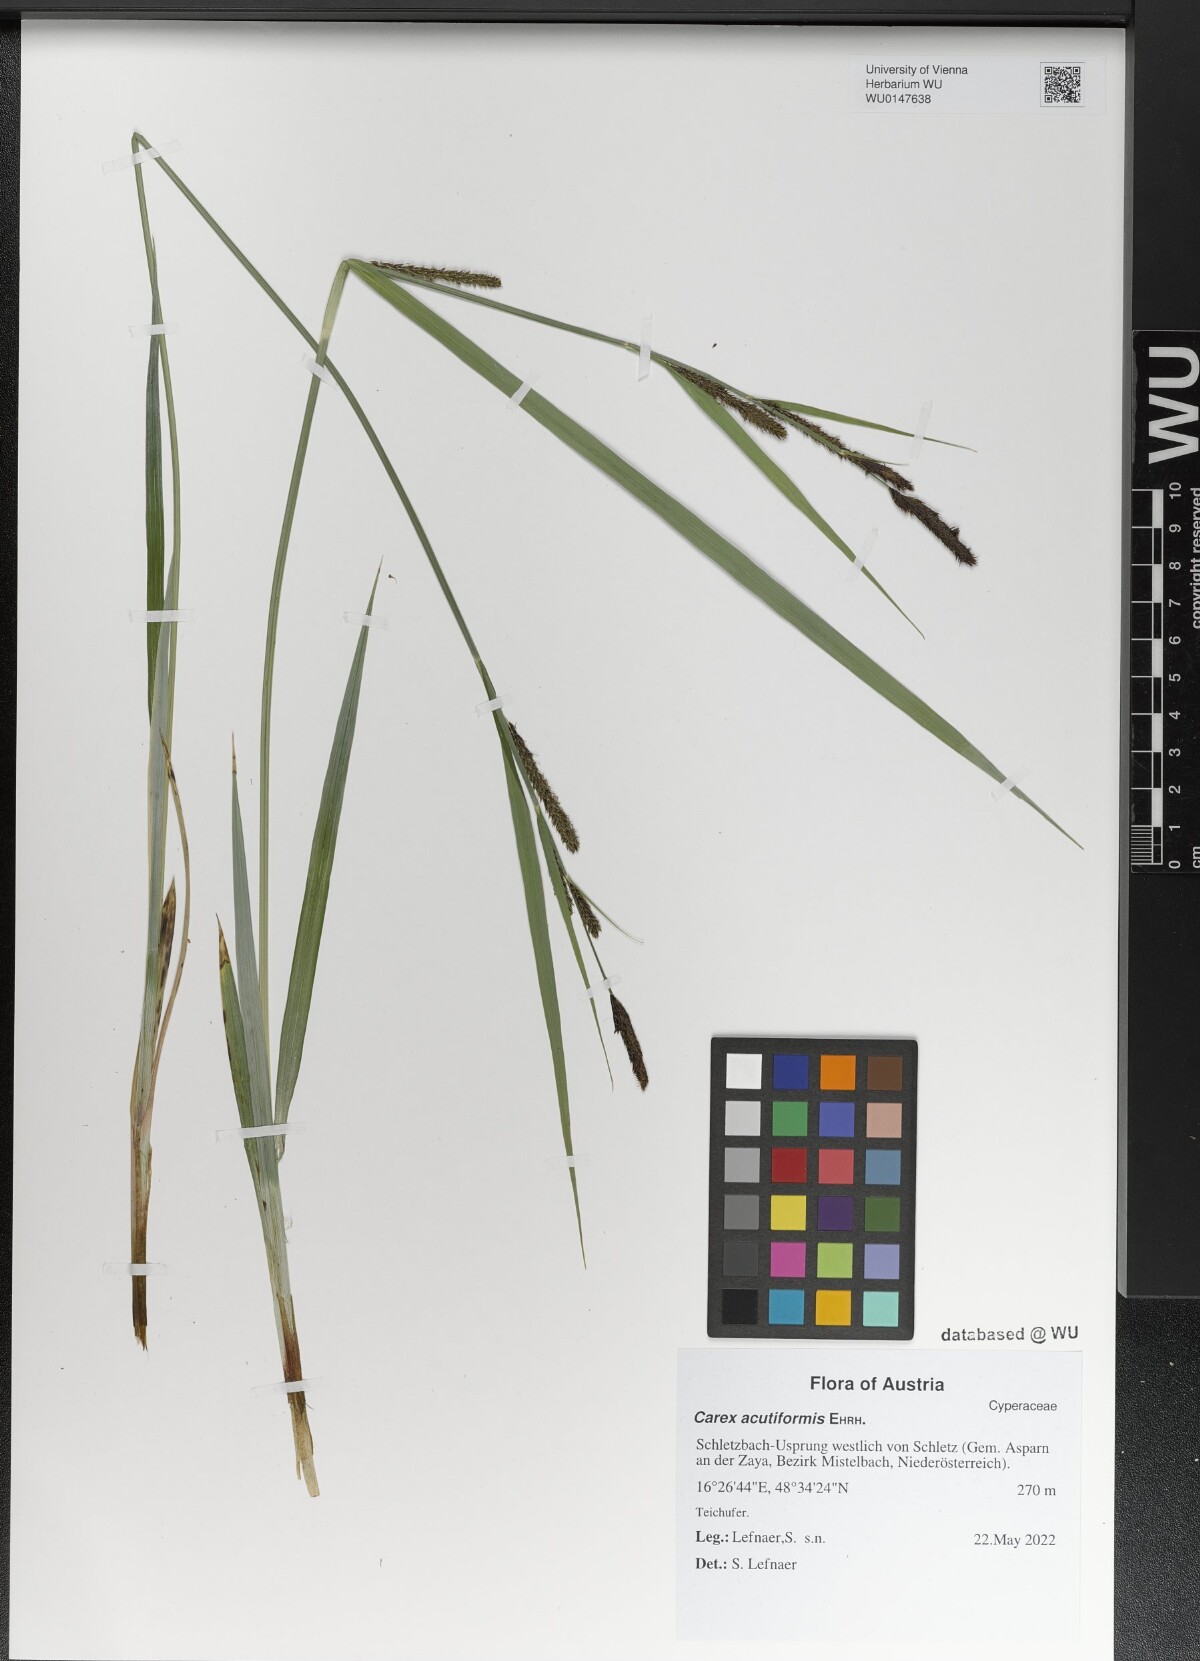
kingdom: Plantae
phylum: Tracheophyta
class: Liliopsida
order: Poales
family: Cyperaceae
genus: Carex
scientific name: Carex acutiformis
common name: Lesser pond-sedge
